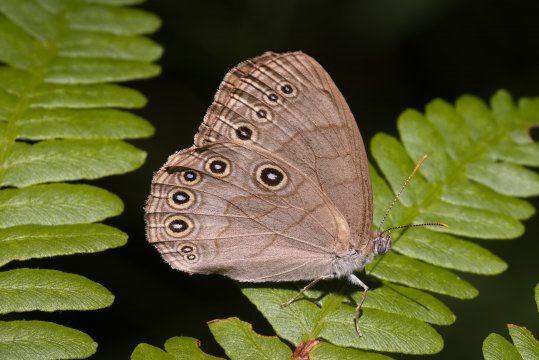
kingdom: Animalia
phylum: Arthropoda
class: Insecta
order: Lepidoptera
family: Nymphalidae
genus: Lethe
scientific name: Lethe eurydice
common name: Appalachian Eyed Brown
